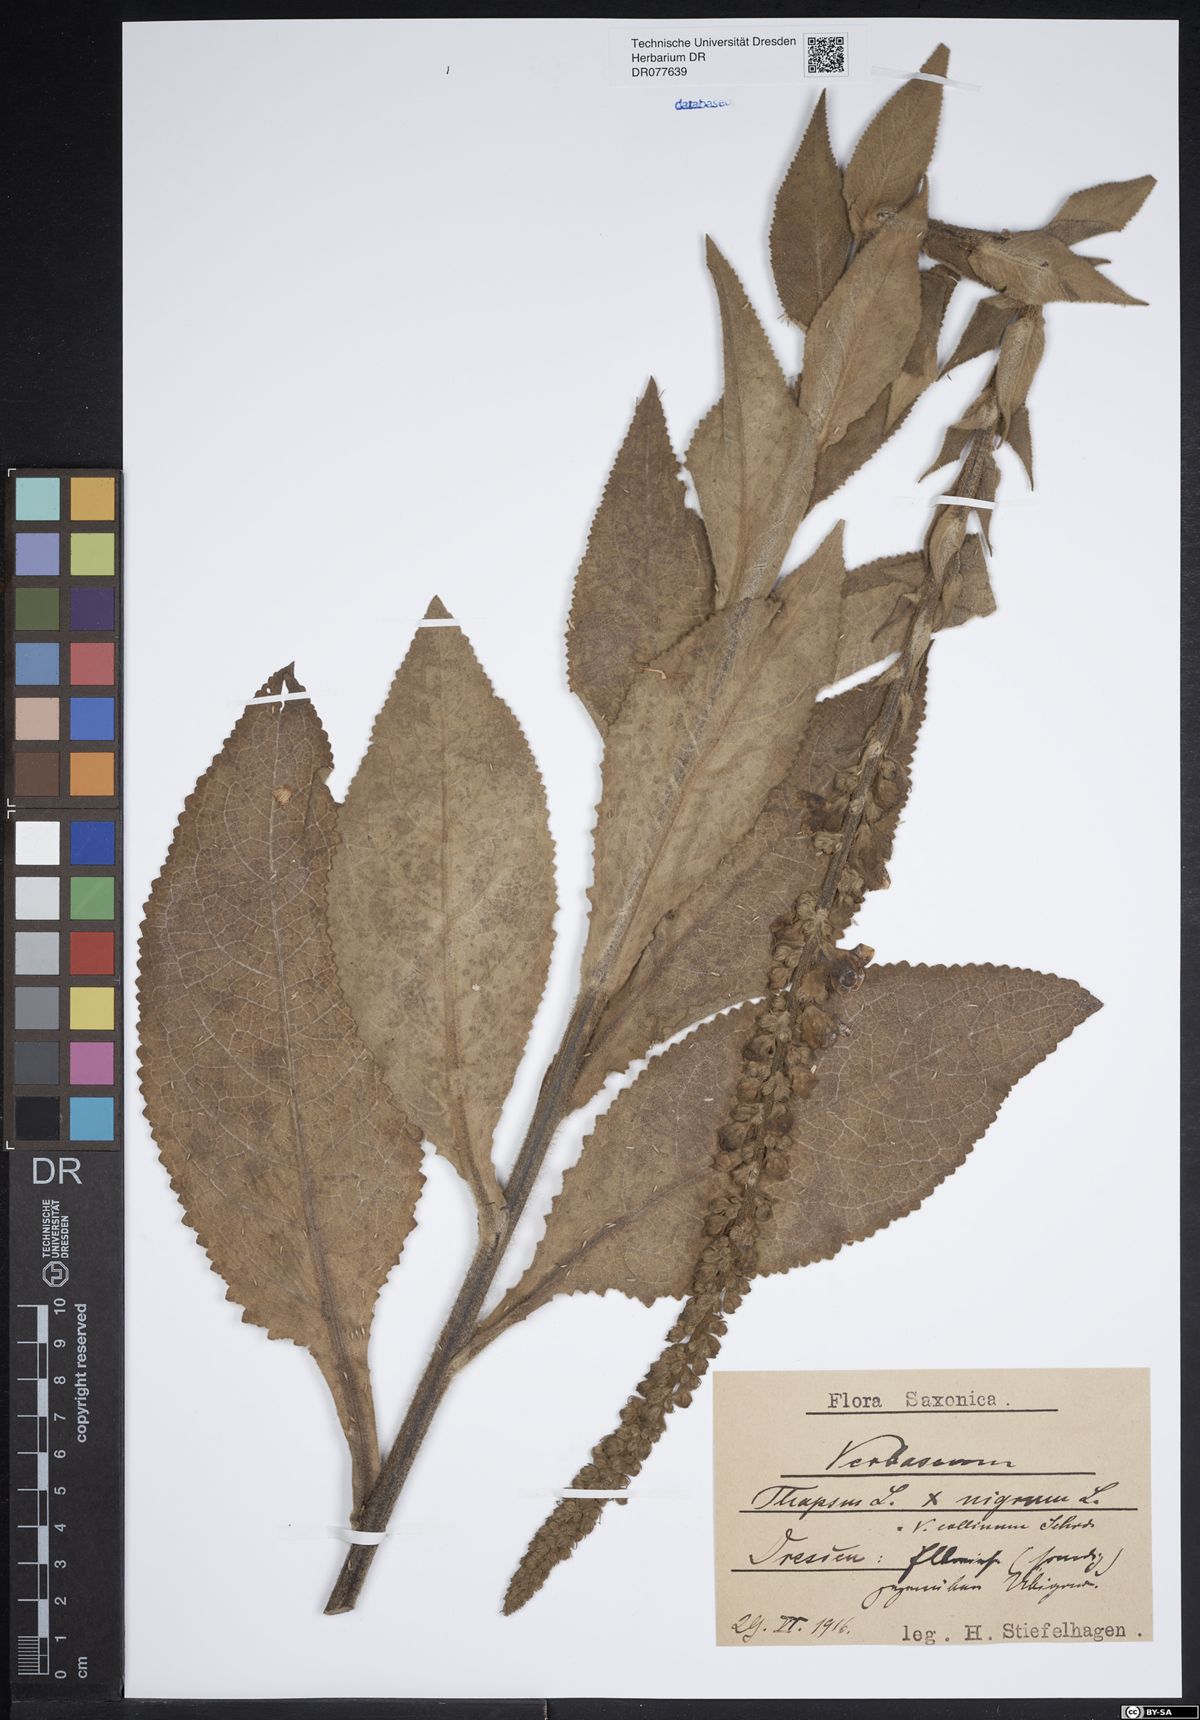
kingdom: Plantae
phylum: Tracheophyta
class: Magnoliopsida
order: Lamiales
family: Scrophulariaceae
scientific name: Scrophulariaceae
